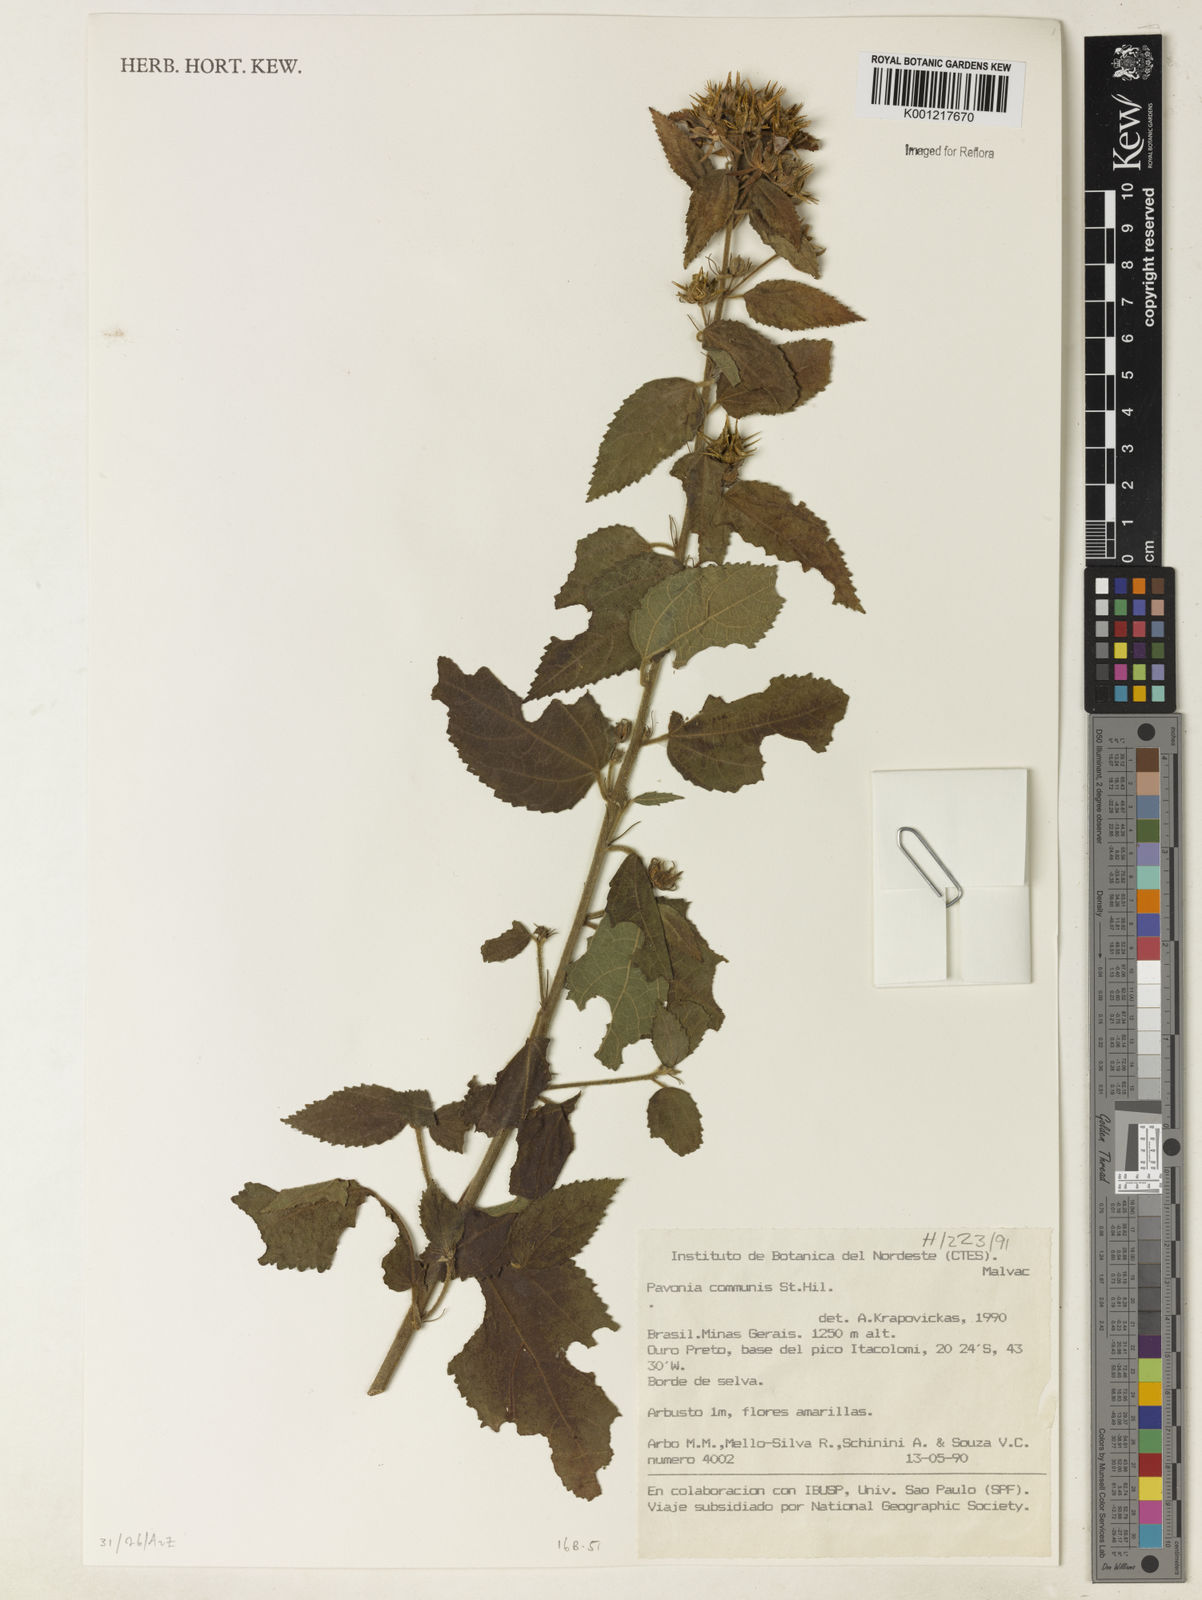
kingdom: Plantae
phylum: Tracheophyta
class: Magnoliopsida
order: Malvales
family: Malvaceae
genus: Pavonia
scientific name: Pavonia communis
